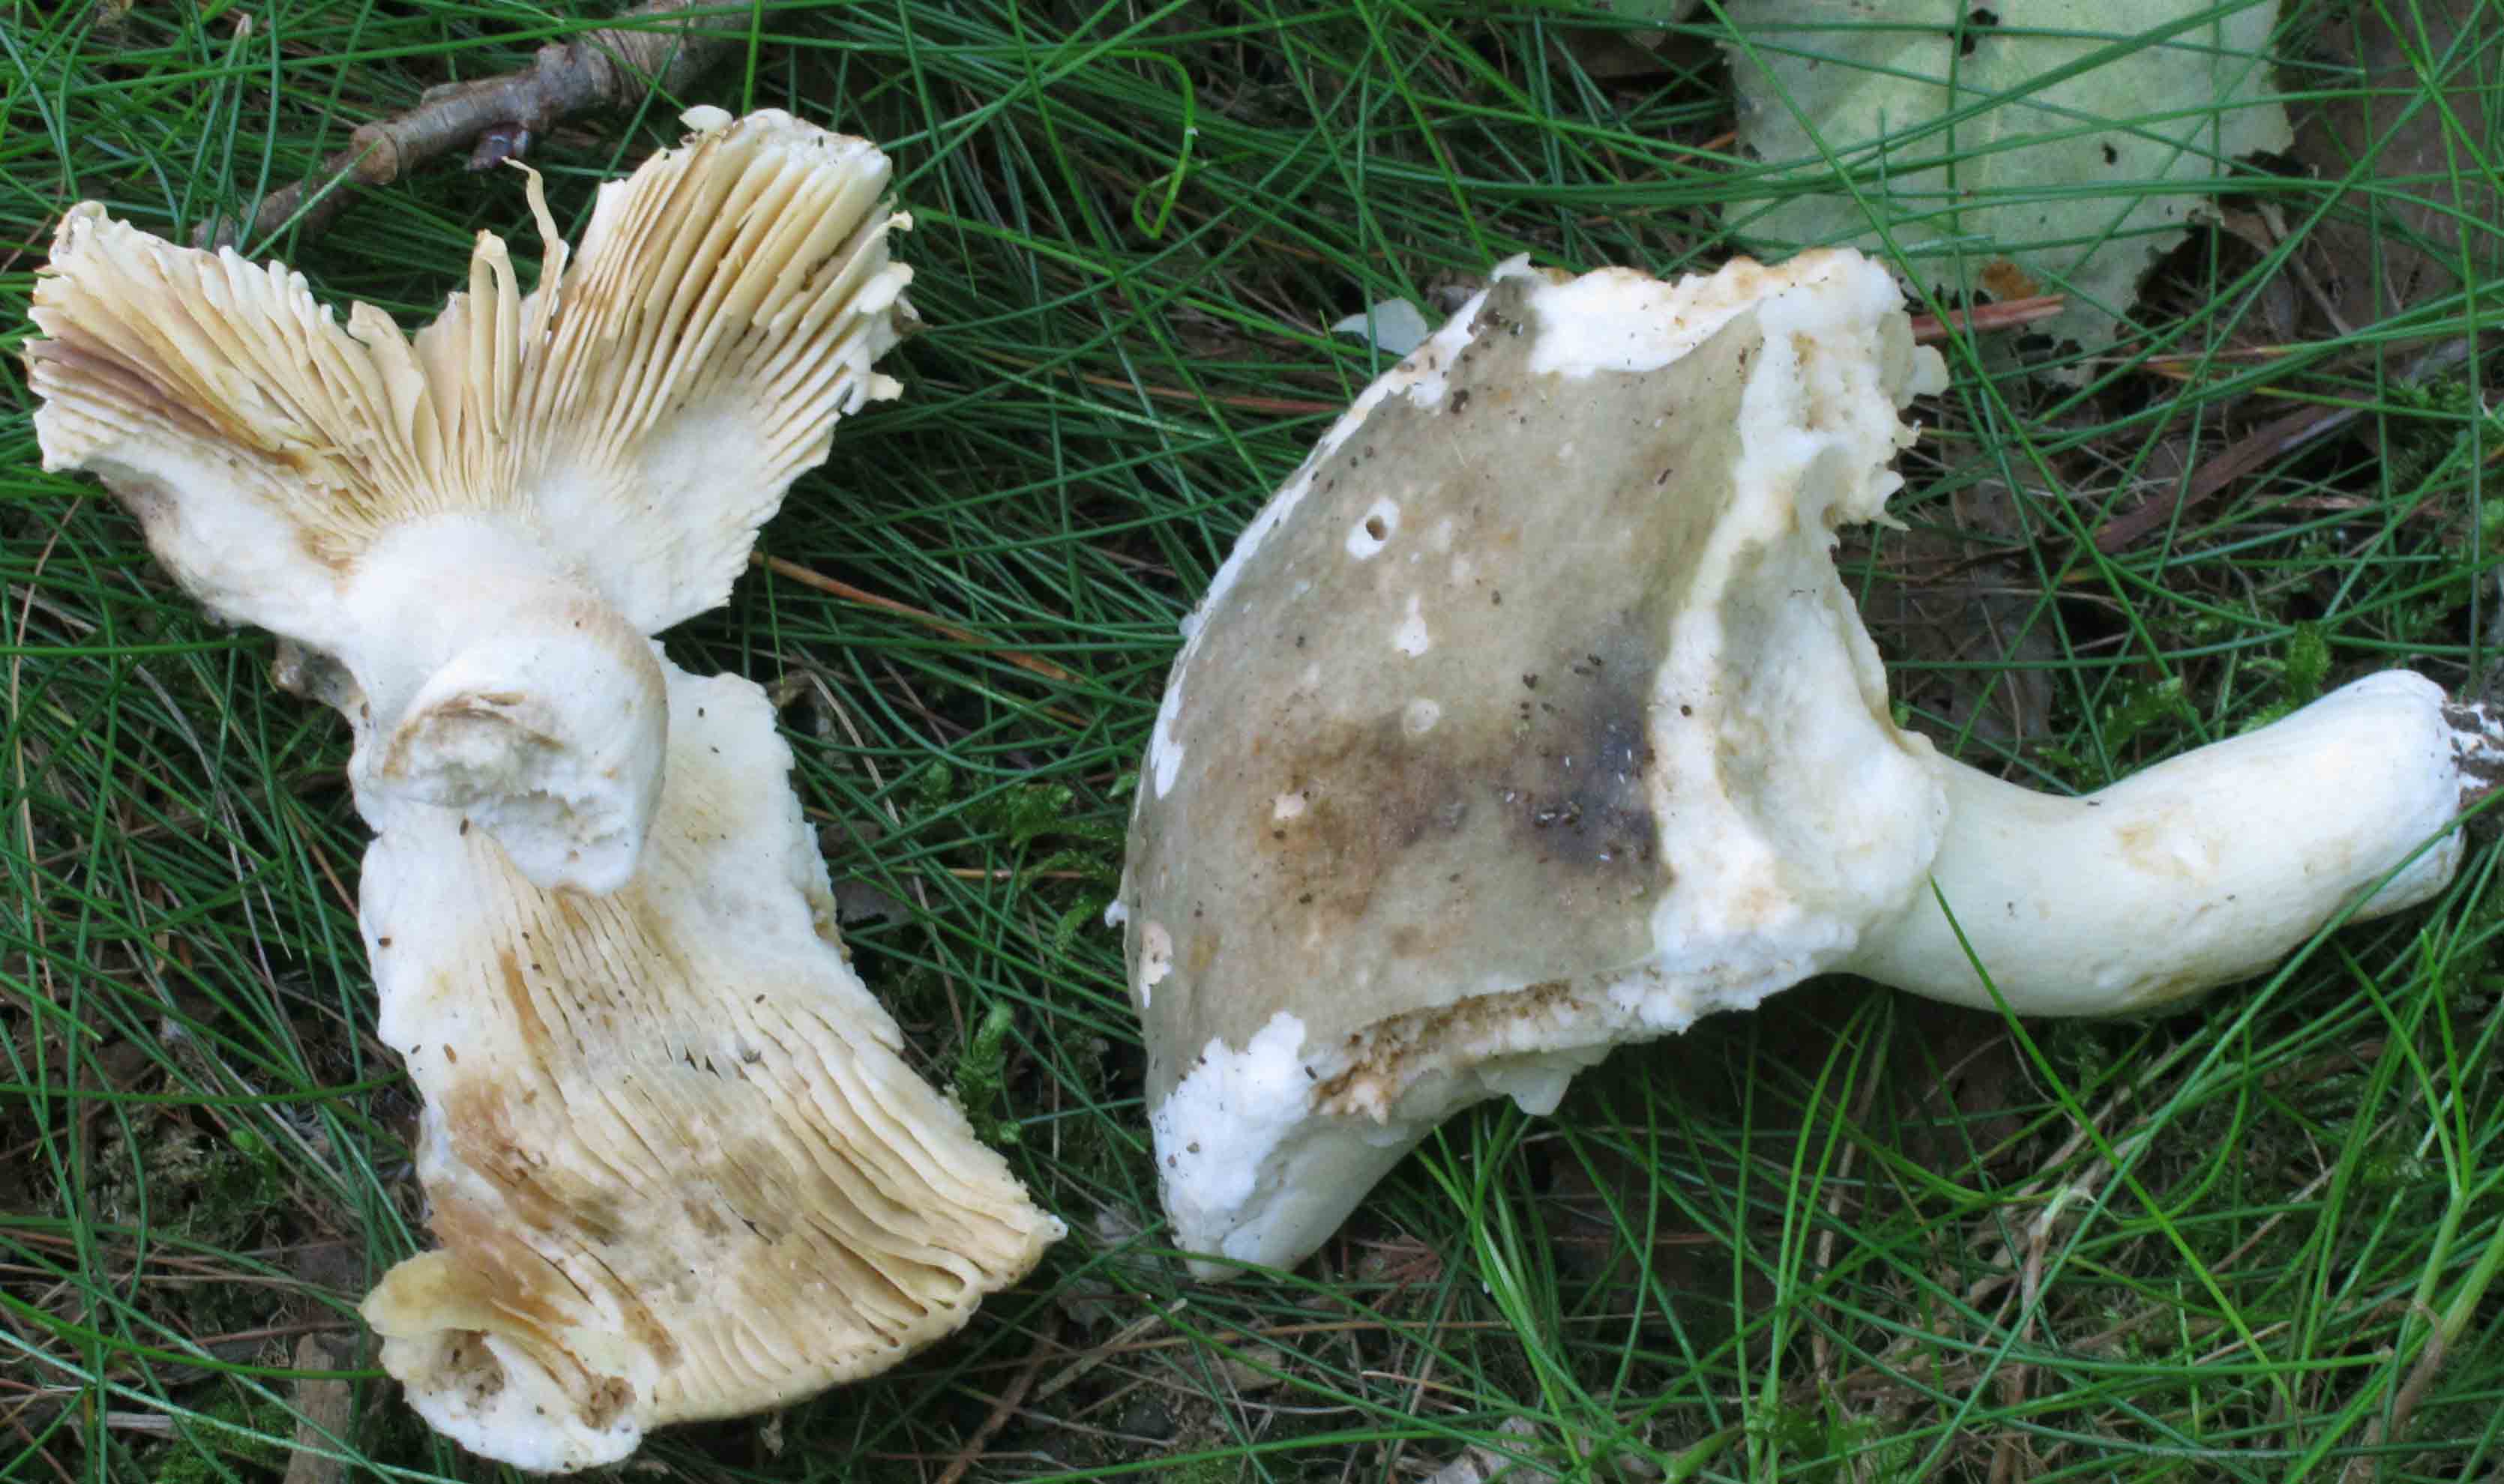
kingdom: Fungi
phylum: Basidiomycota
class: Agaricomycetes
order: Russulales
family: Russulaceae
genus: Russula
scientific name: Russula aeruginea
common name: græsgrøn skørhat
